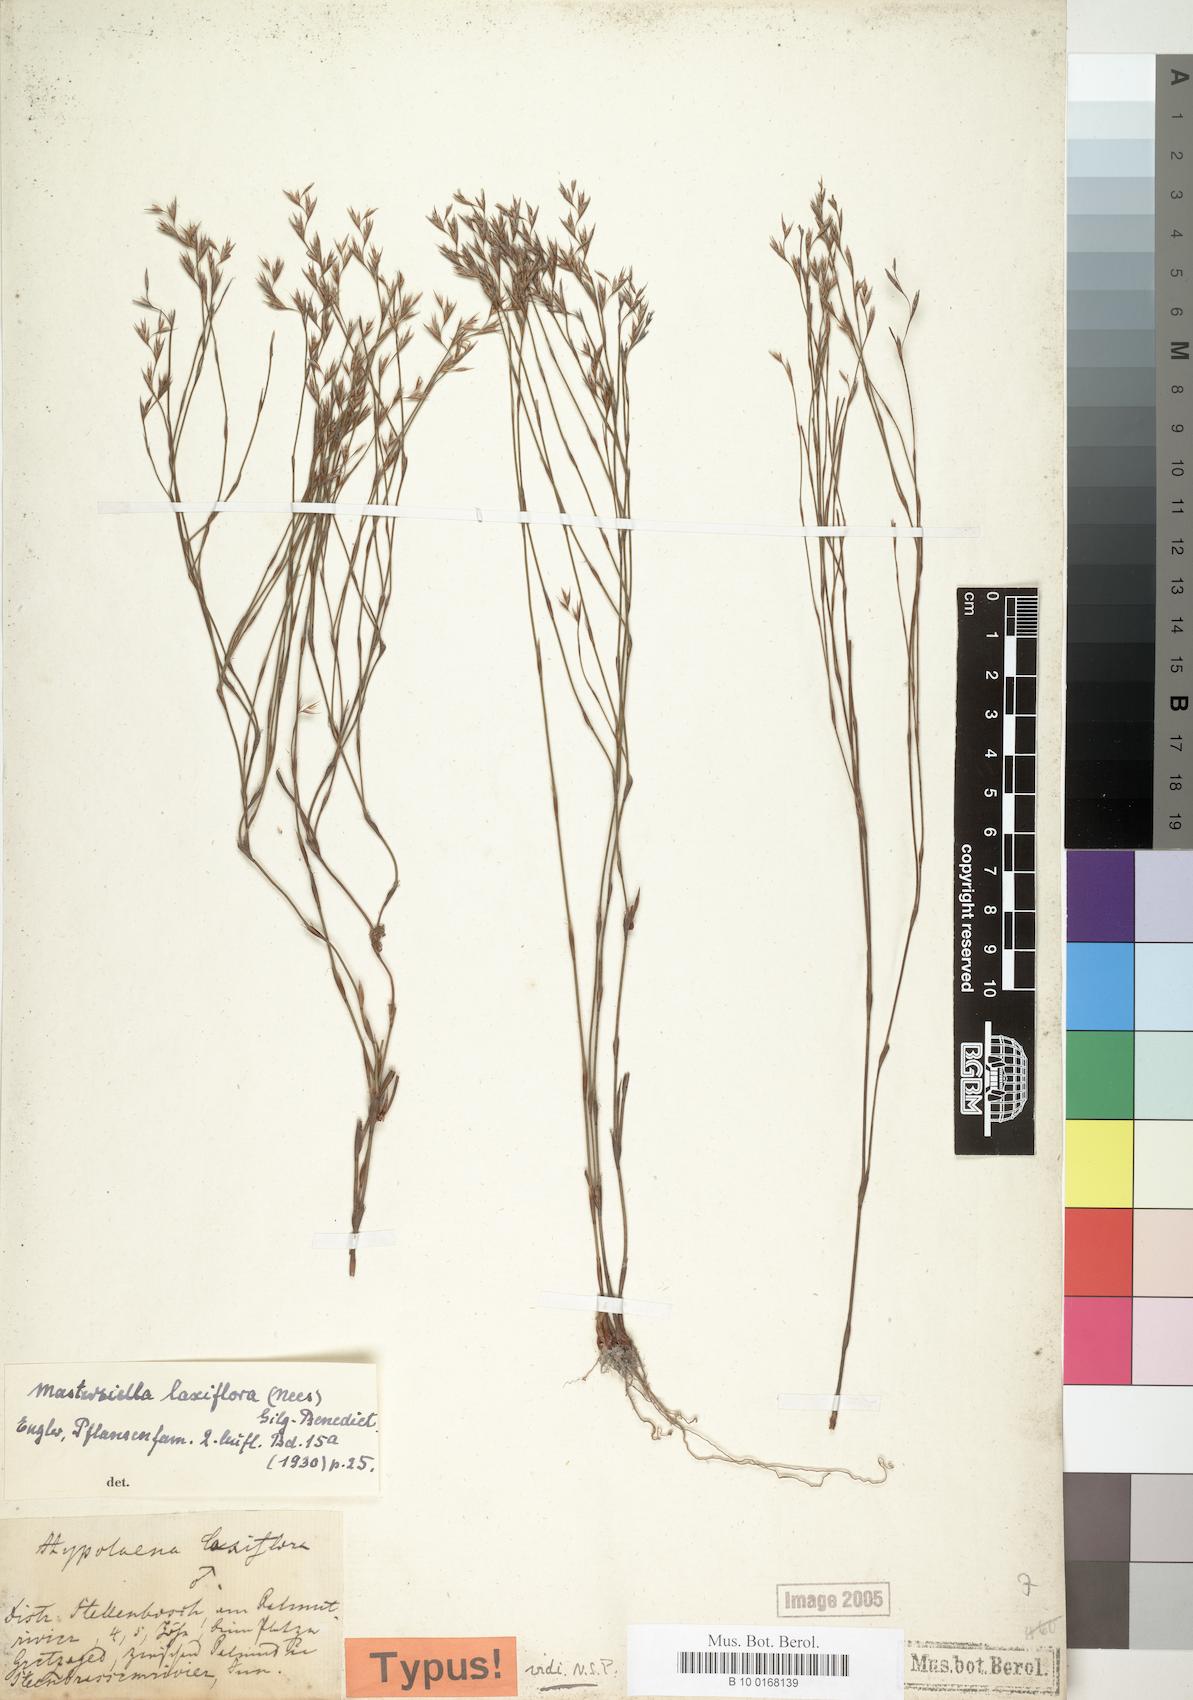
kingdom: Plantae
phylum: Tracheophyta
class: Liliopsida
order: Poales
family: Restionaceae
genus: Anthochortus
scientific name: Anthochortus laxiflorus
